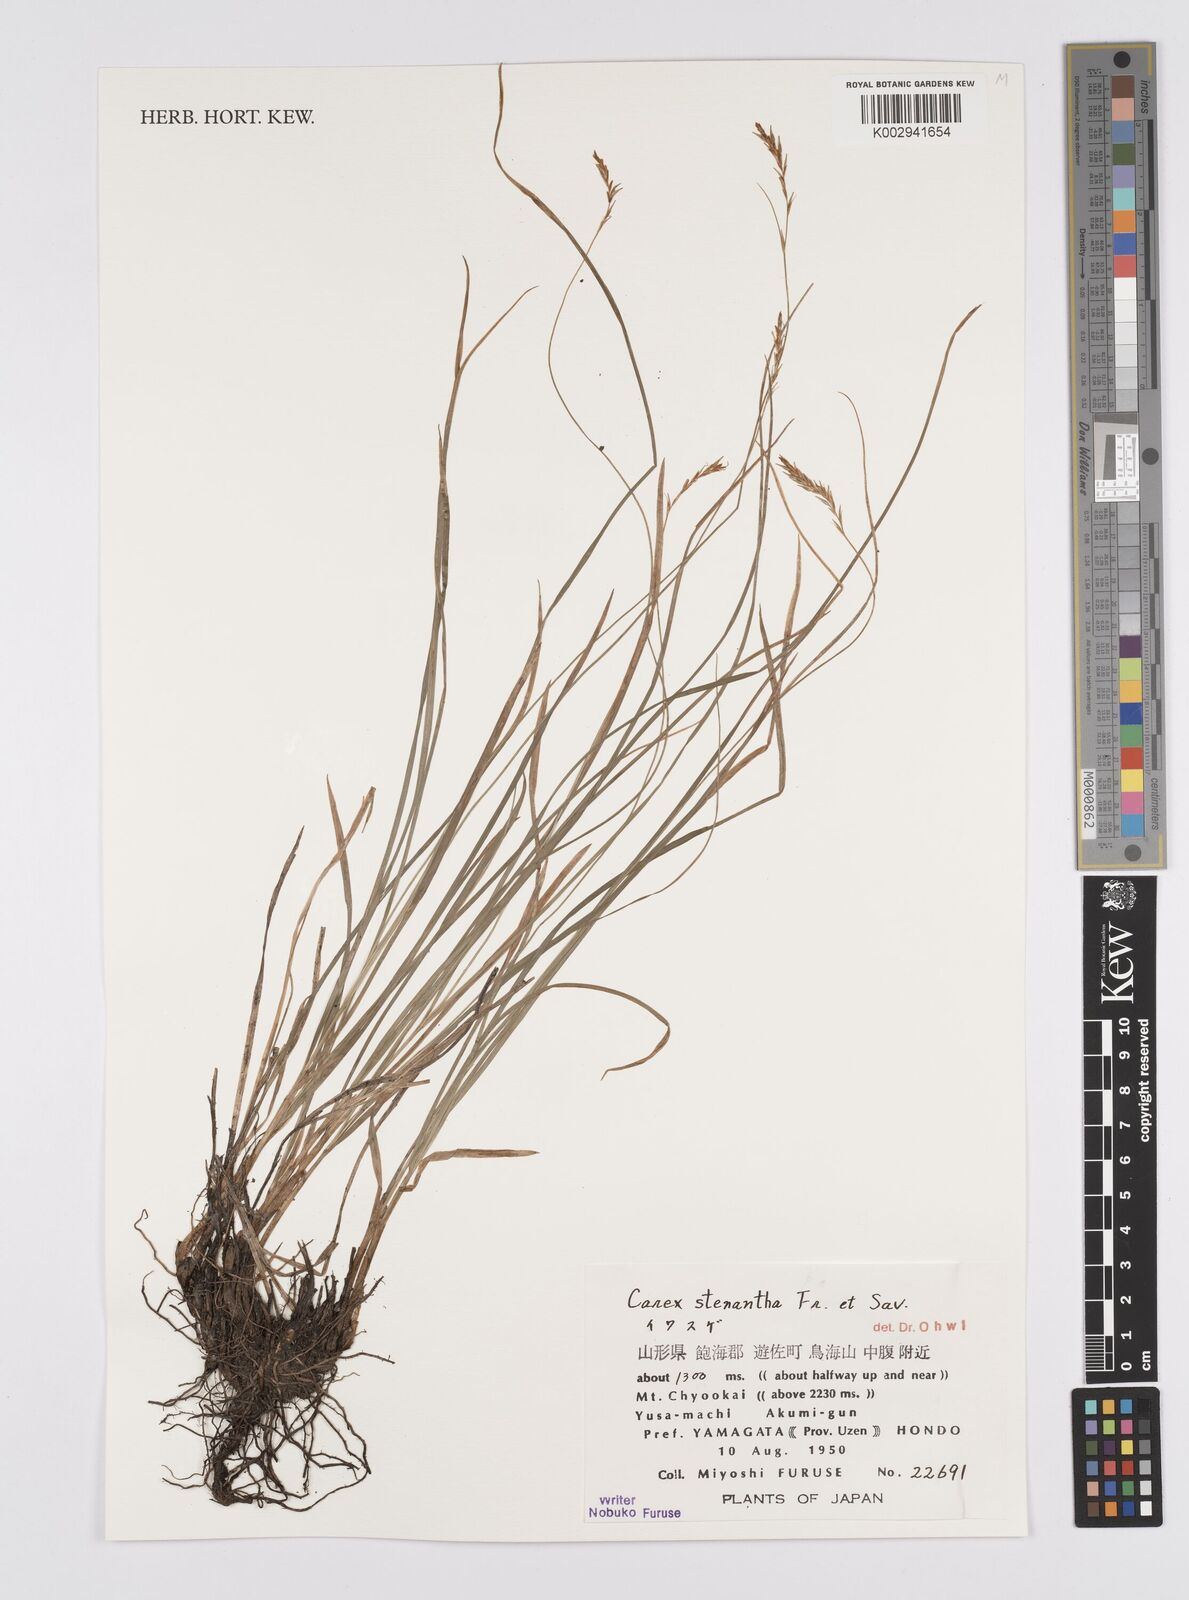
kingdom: Plantae
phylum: Tracheophyta
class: Liliopsida
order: Poales
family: Cyperaceae
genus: Carex
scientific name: Carex stenantha
